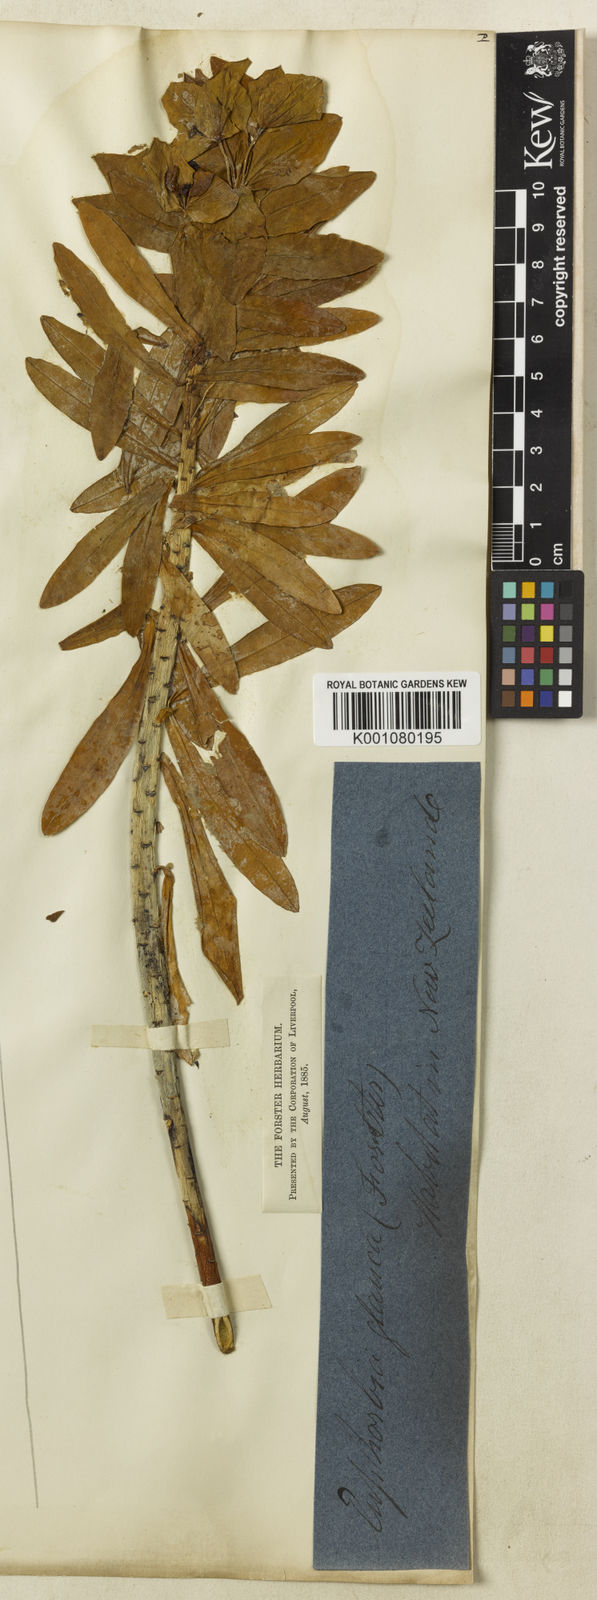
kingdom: Plantae
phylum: Tracheophyta
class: Magnoliopsida
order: Malpighiales
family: Euphorbiaceae
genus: Euphorbia
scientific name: Euphorbia glauca
